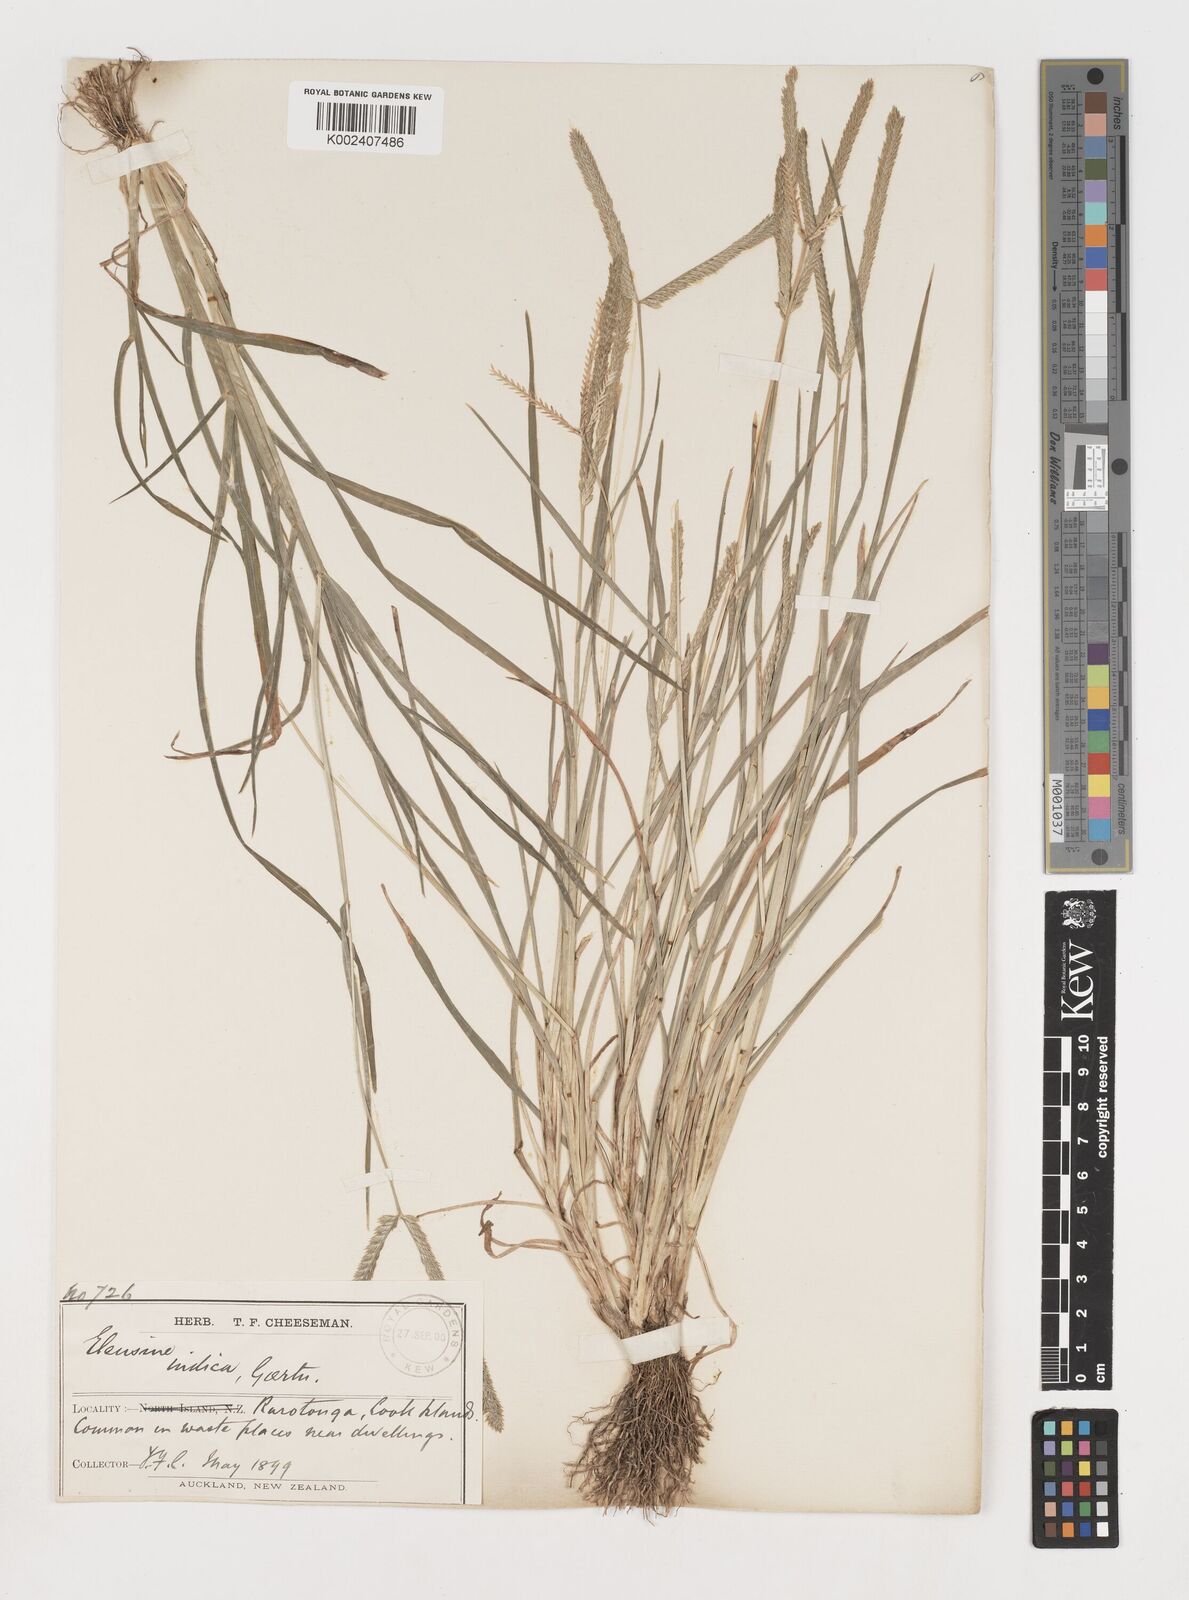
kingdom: Plantae
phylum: Tracheophyta
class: Liliopsida
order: Poales
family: Poaceae
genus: Eleusine
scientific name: Eleusine indica
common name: Yard-grass
